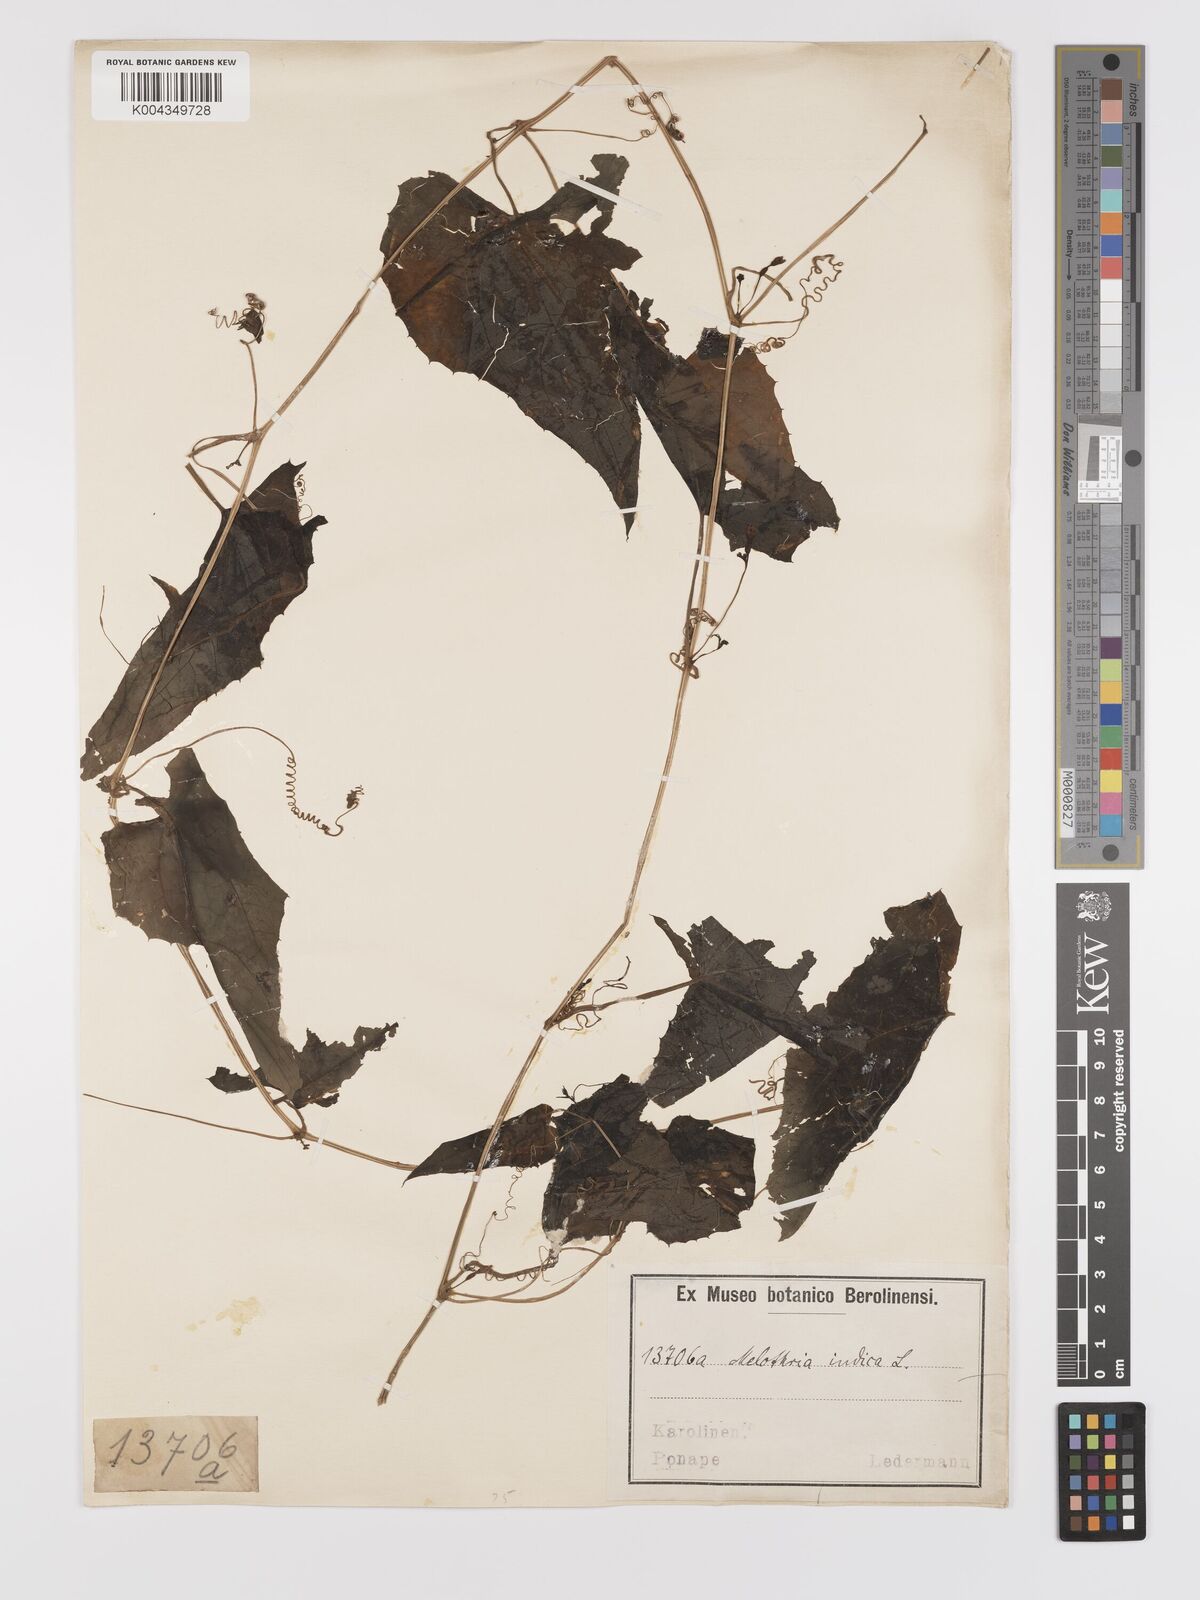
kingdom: Plantae
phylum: Tracheophyta
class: Magnoliopsida
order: Cucurbitales
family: Cucurbitaceae
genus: Zehneria
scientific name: Zehneria mucronata
